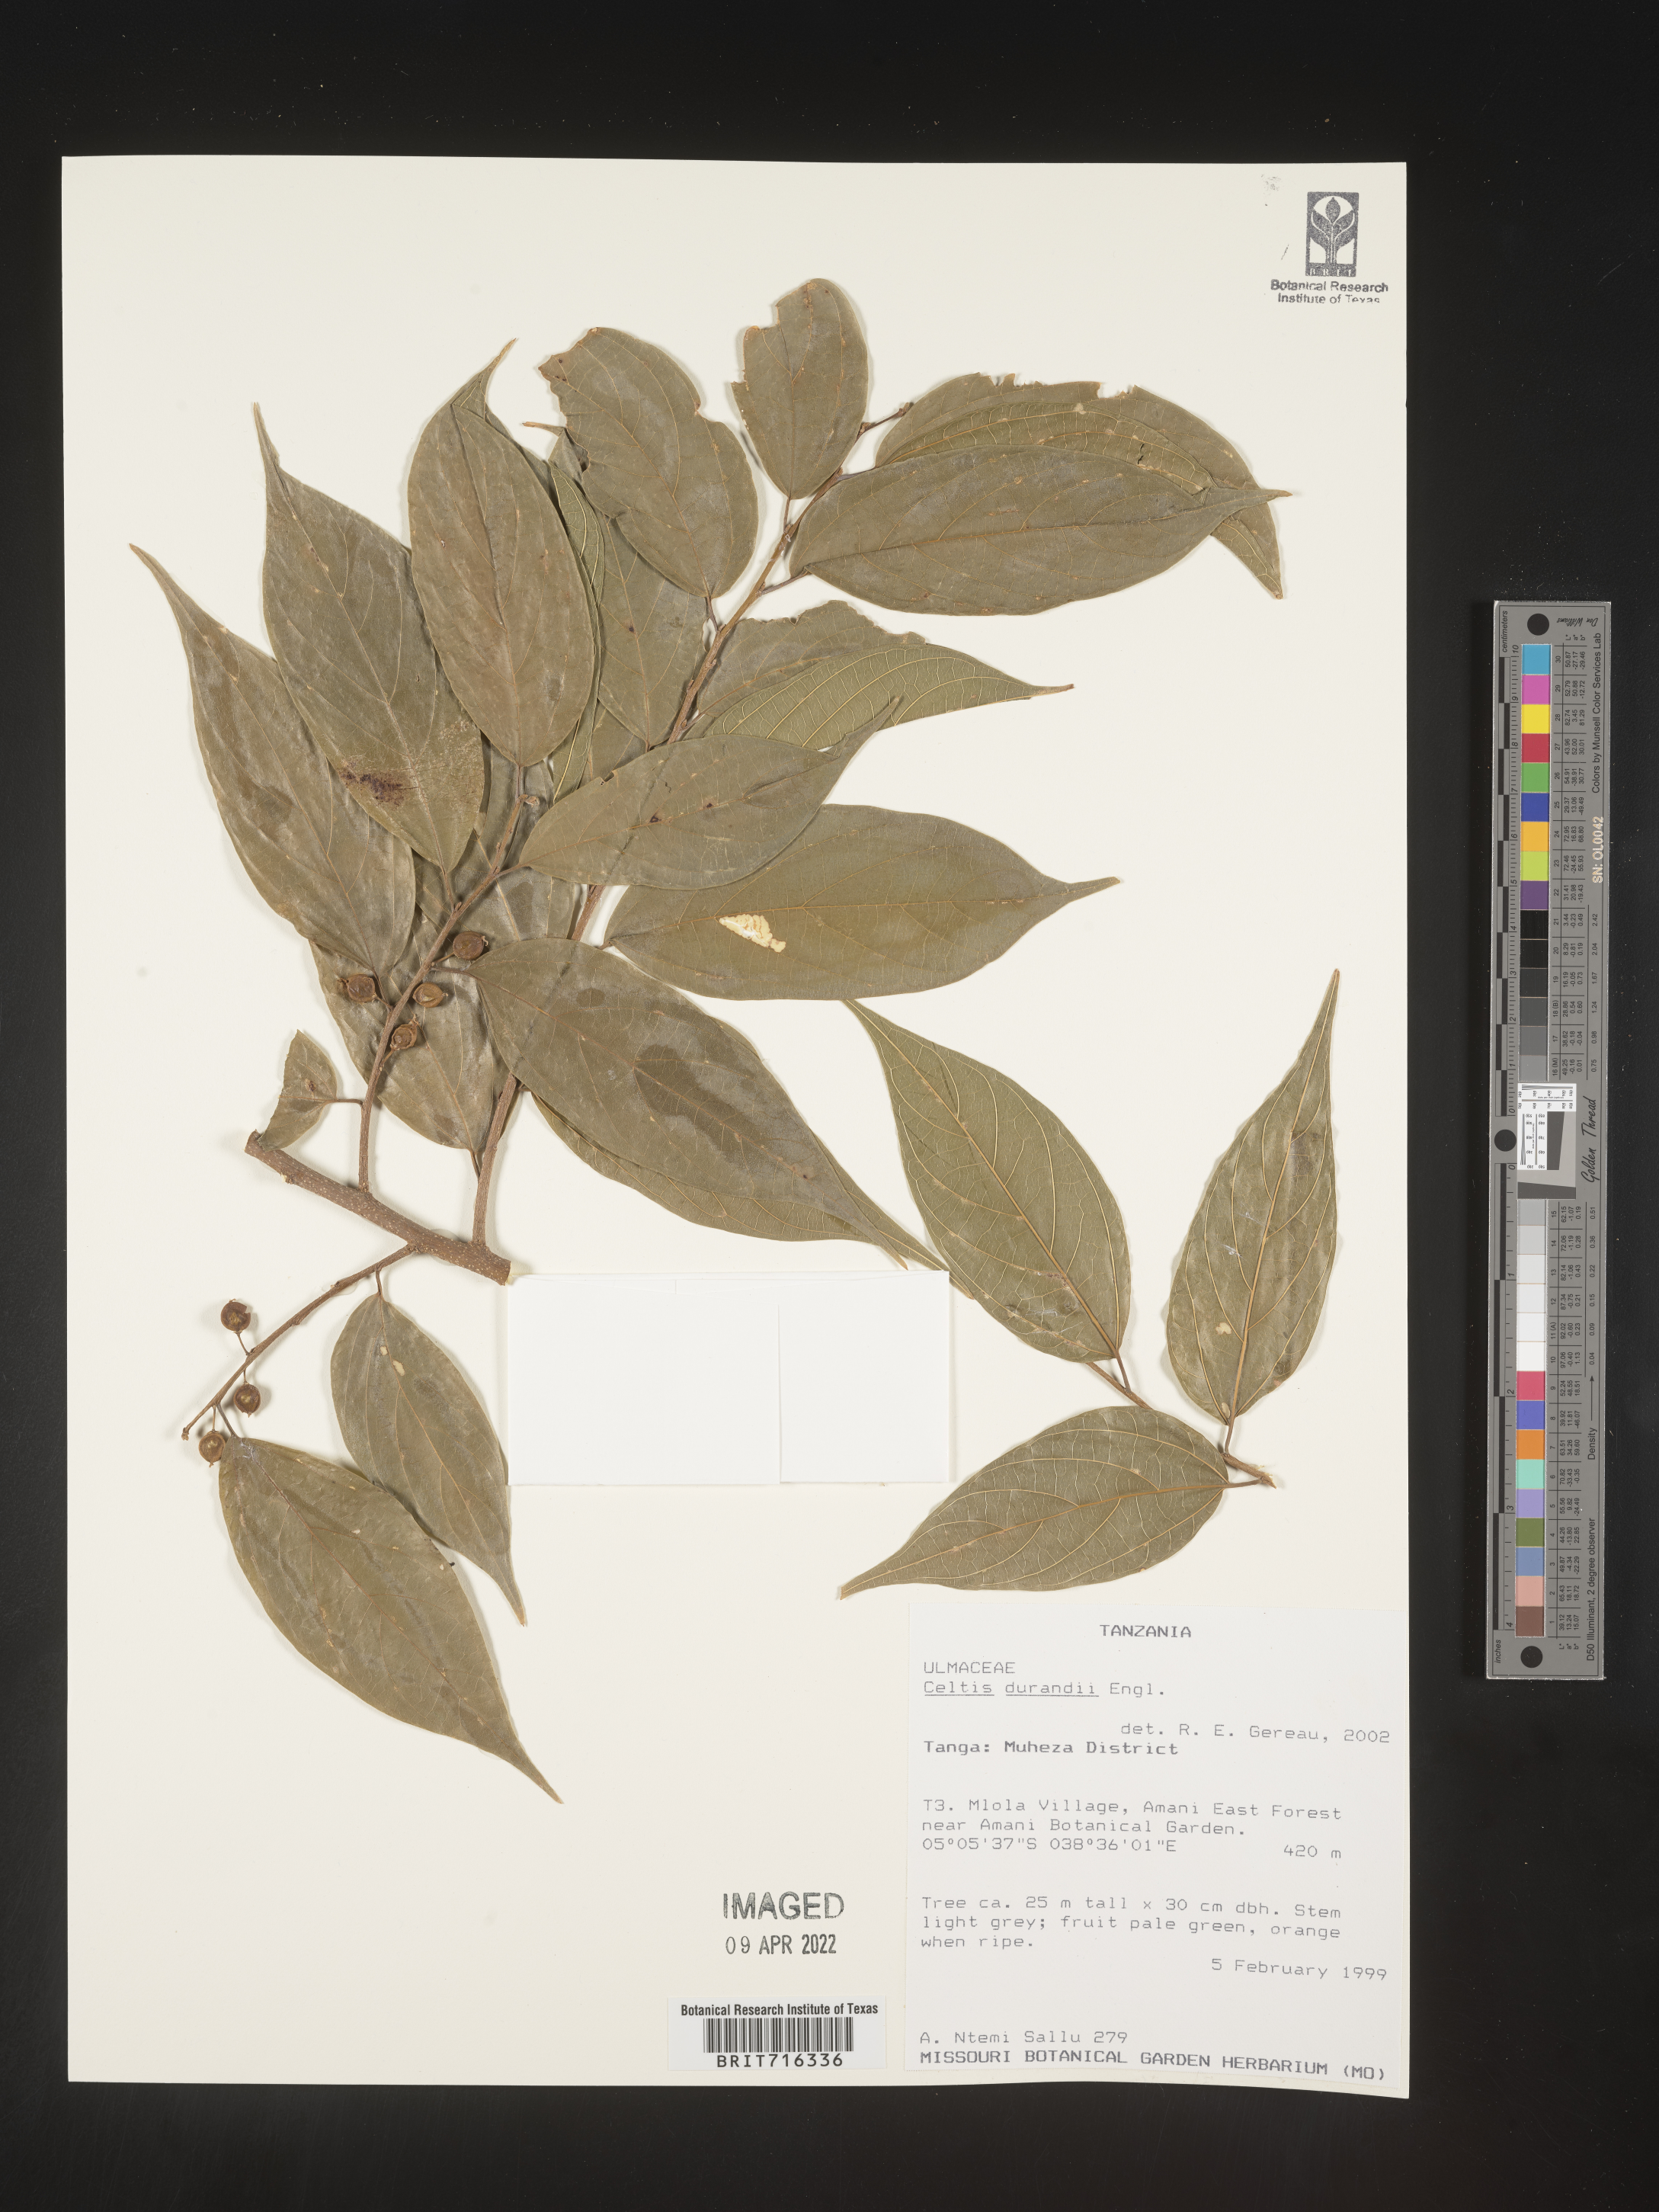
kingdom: Plantae
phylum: Tracheophyta
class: Magnoliopsida
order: Rosales
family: Cannabaceae
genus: Celtis
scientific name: Celtis
